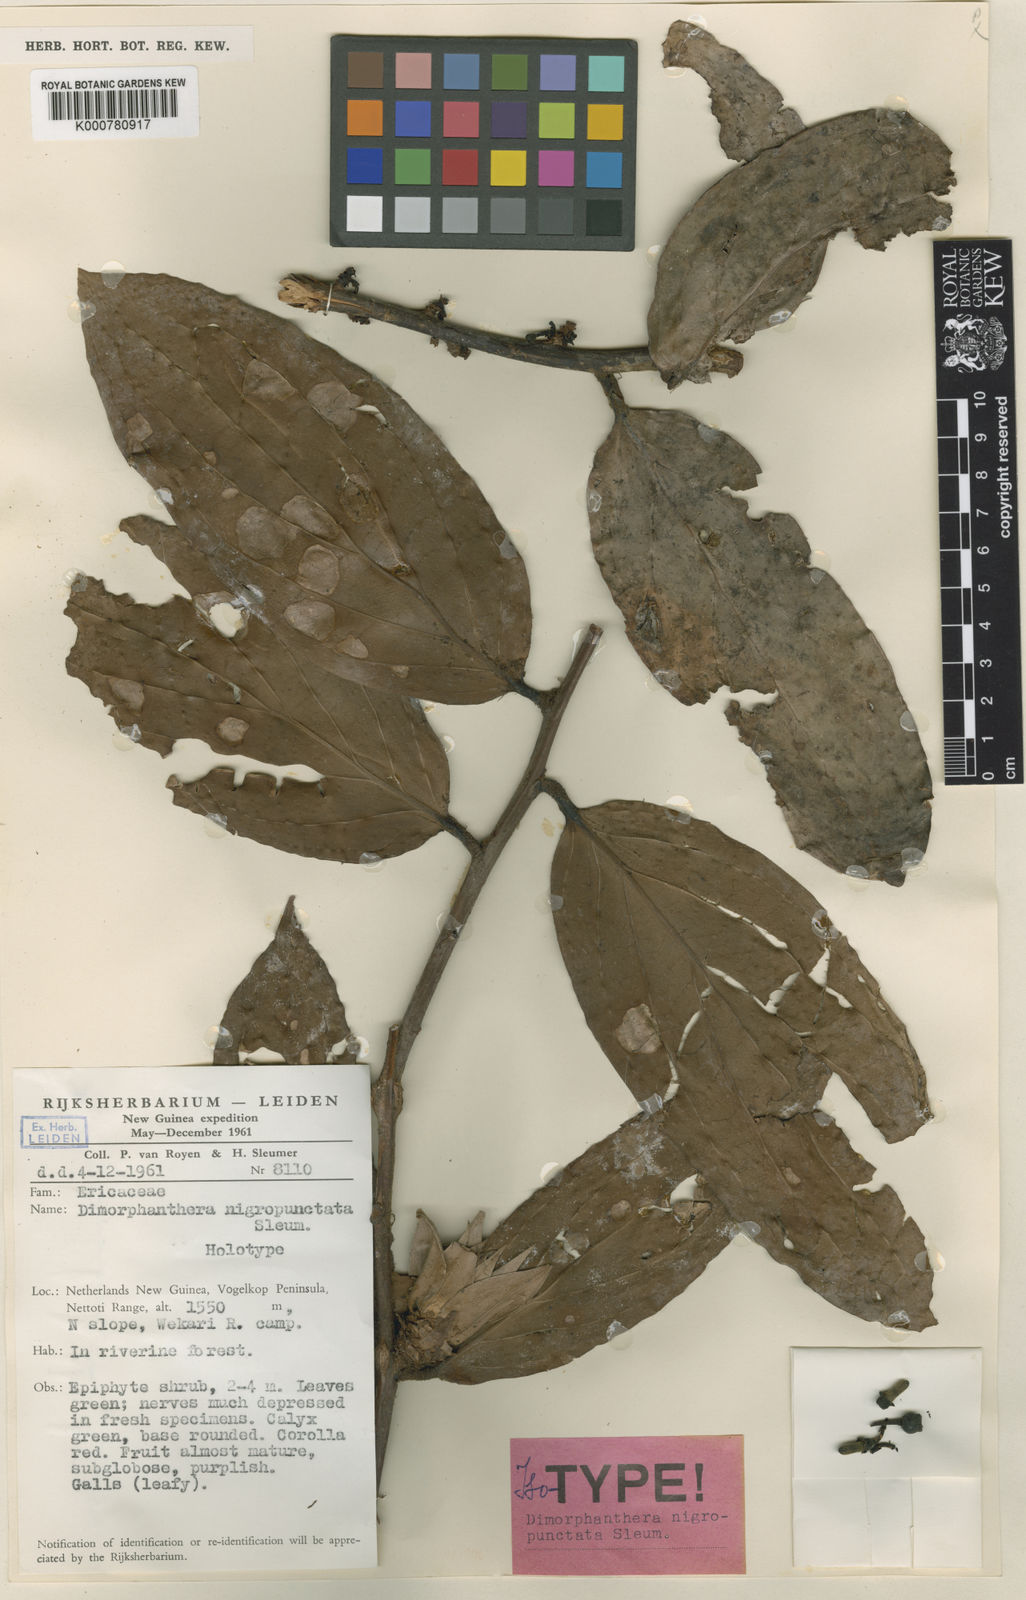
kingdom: Plantae
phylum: Tracheophyta
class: Magnoliopsida
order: Ericales
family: Ericaceae
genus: Dimorphanthera
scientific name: Dimorphanthera nigropunctata
